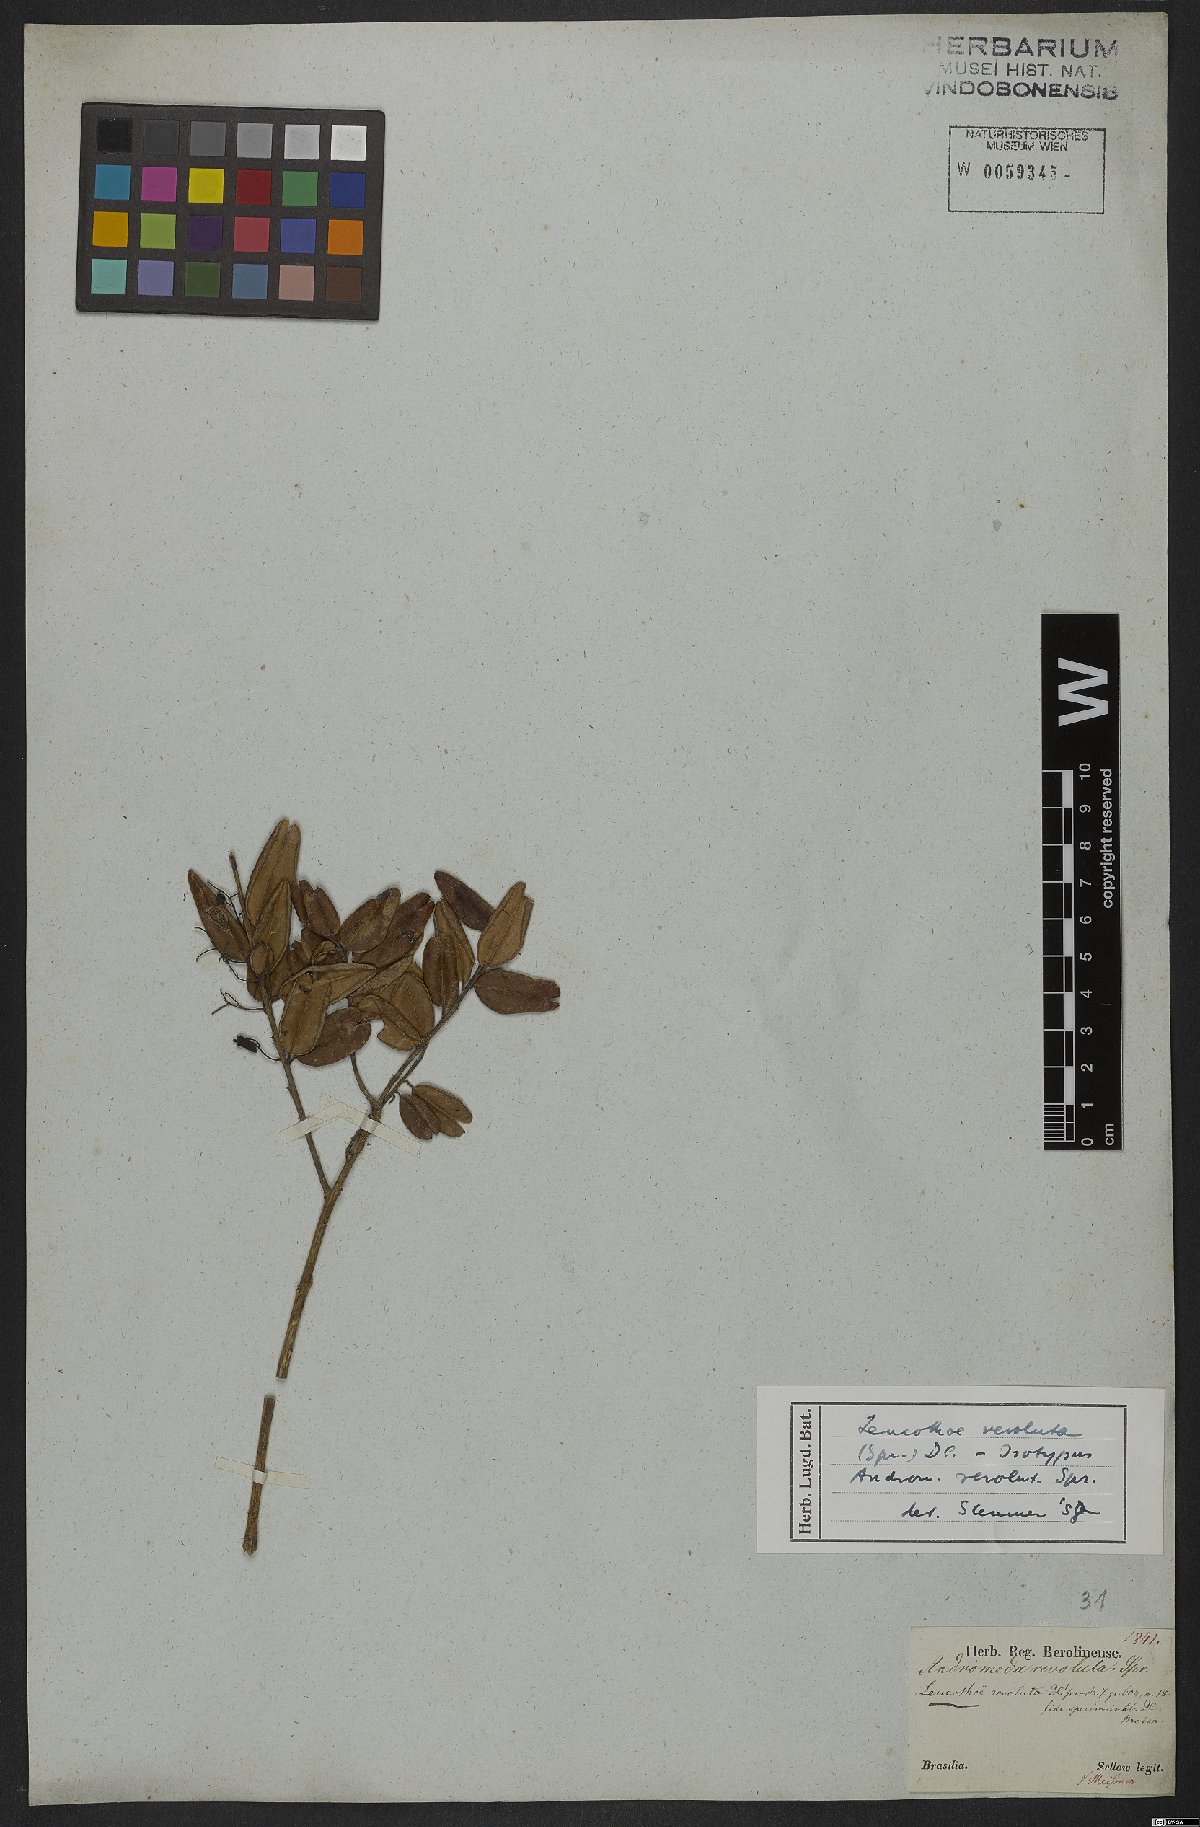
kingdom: Plantae
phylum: Tracheophyta
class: Magnoliopsida
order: Ericales
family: Ericaceae
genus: Agarista
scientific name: Agarista revoluta
